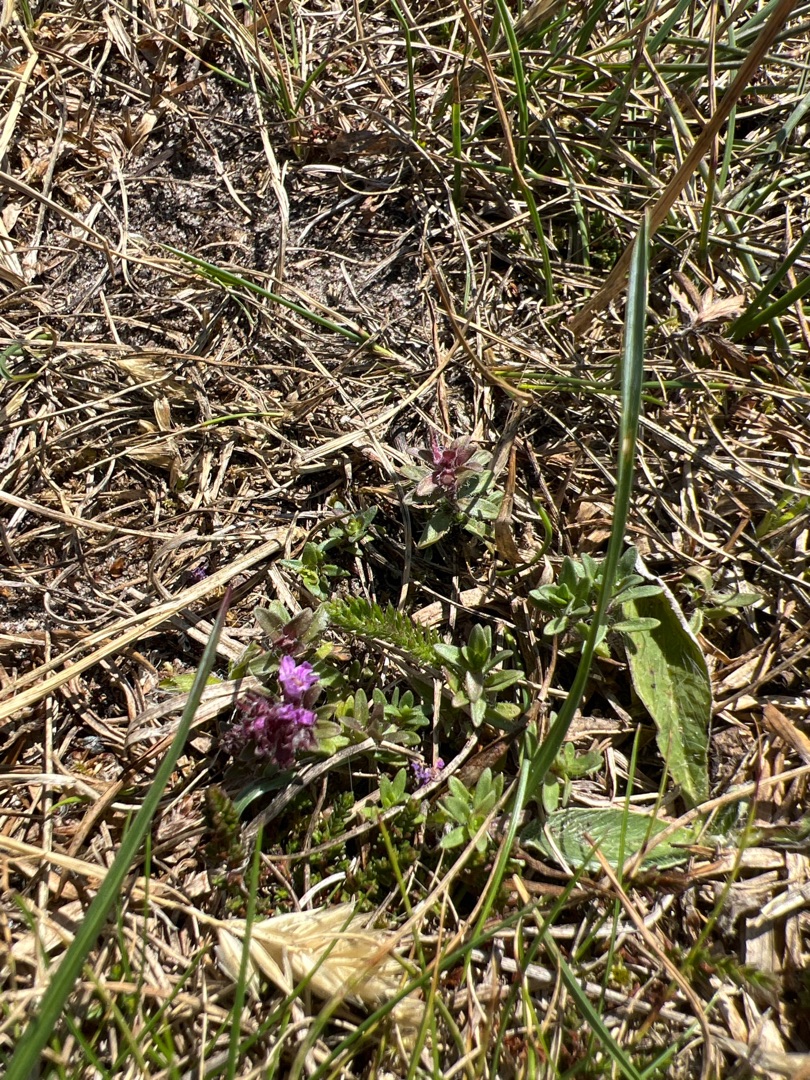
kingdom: Plantae
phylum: Tracheophyta
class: Magnoliopsida
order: Lamiales
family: Lamiaceae
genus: Thymus
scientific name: Thymus serpyllum
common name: Smalbladet timian
